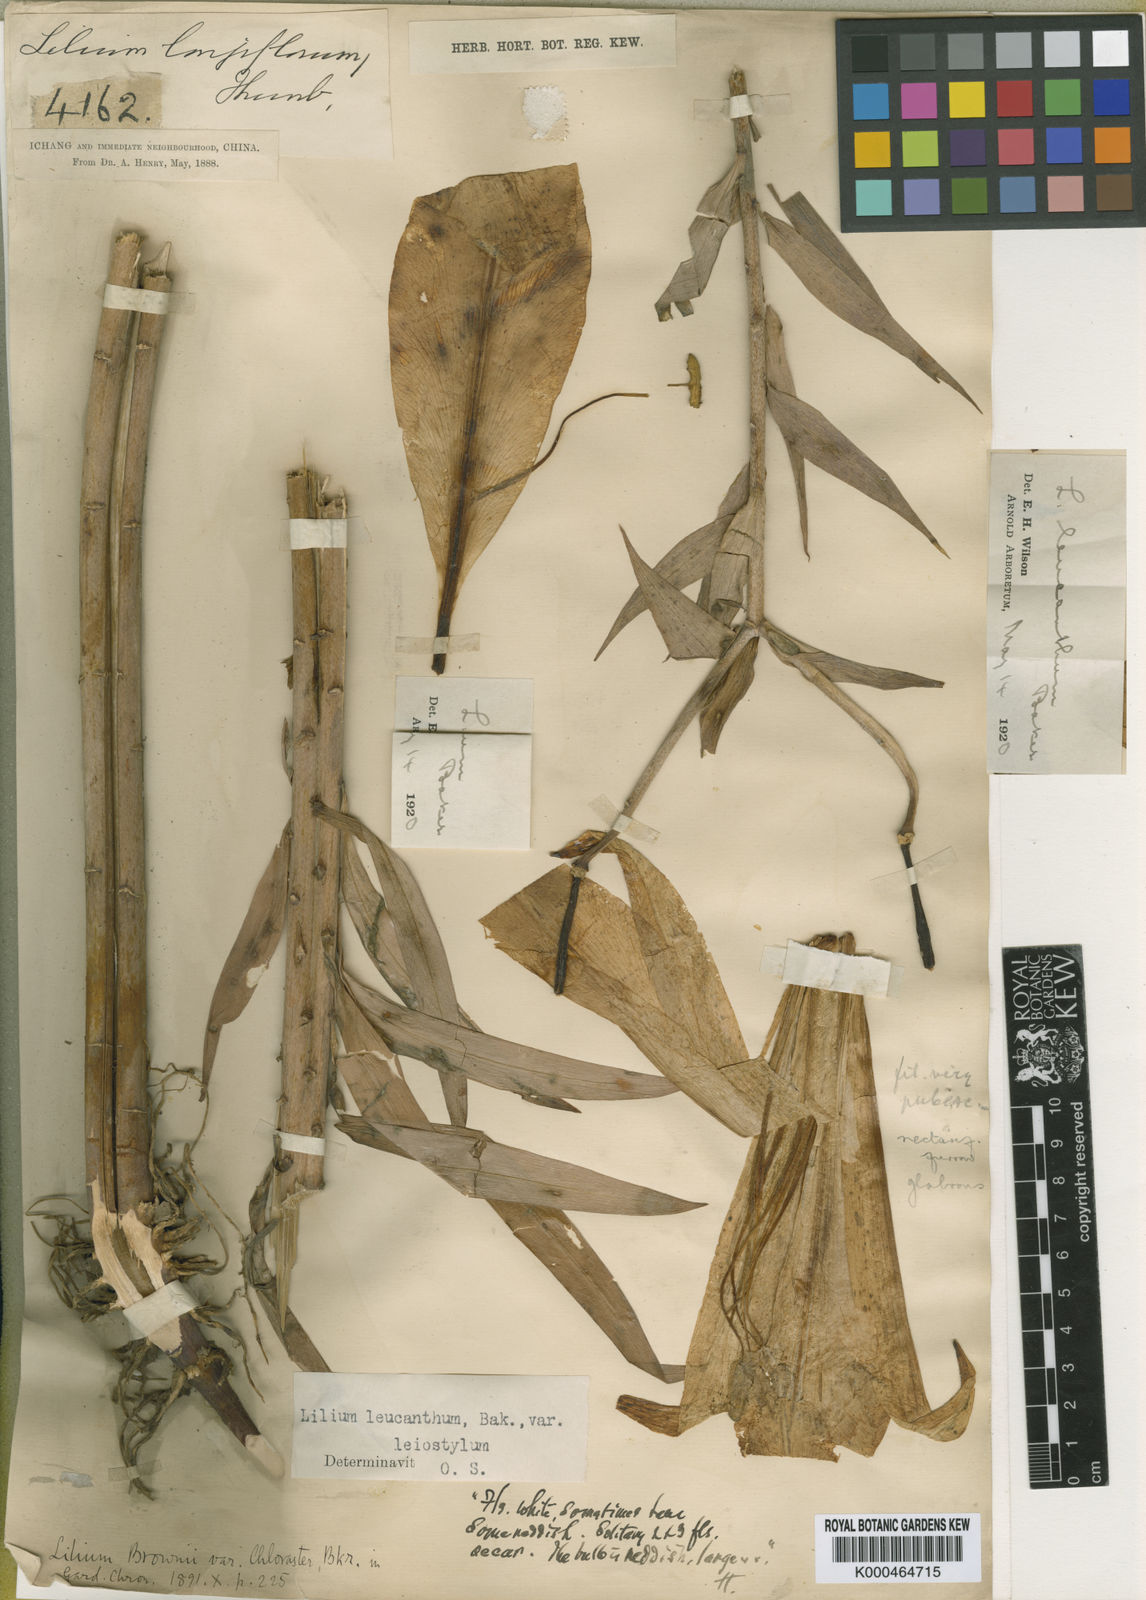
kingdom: Plantae
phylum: Tracheophyta
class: Liliopsida
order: Liliales
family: Liliaceae
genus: Lilium
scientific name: Lilium leucanthum
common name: Chinese white lily
